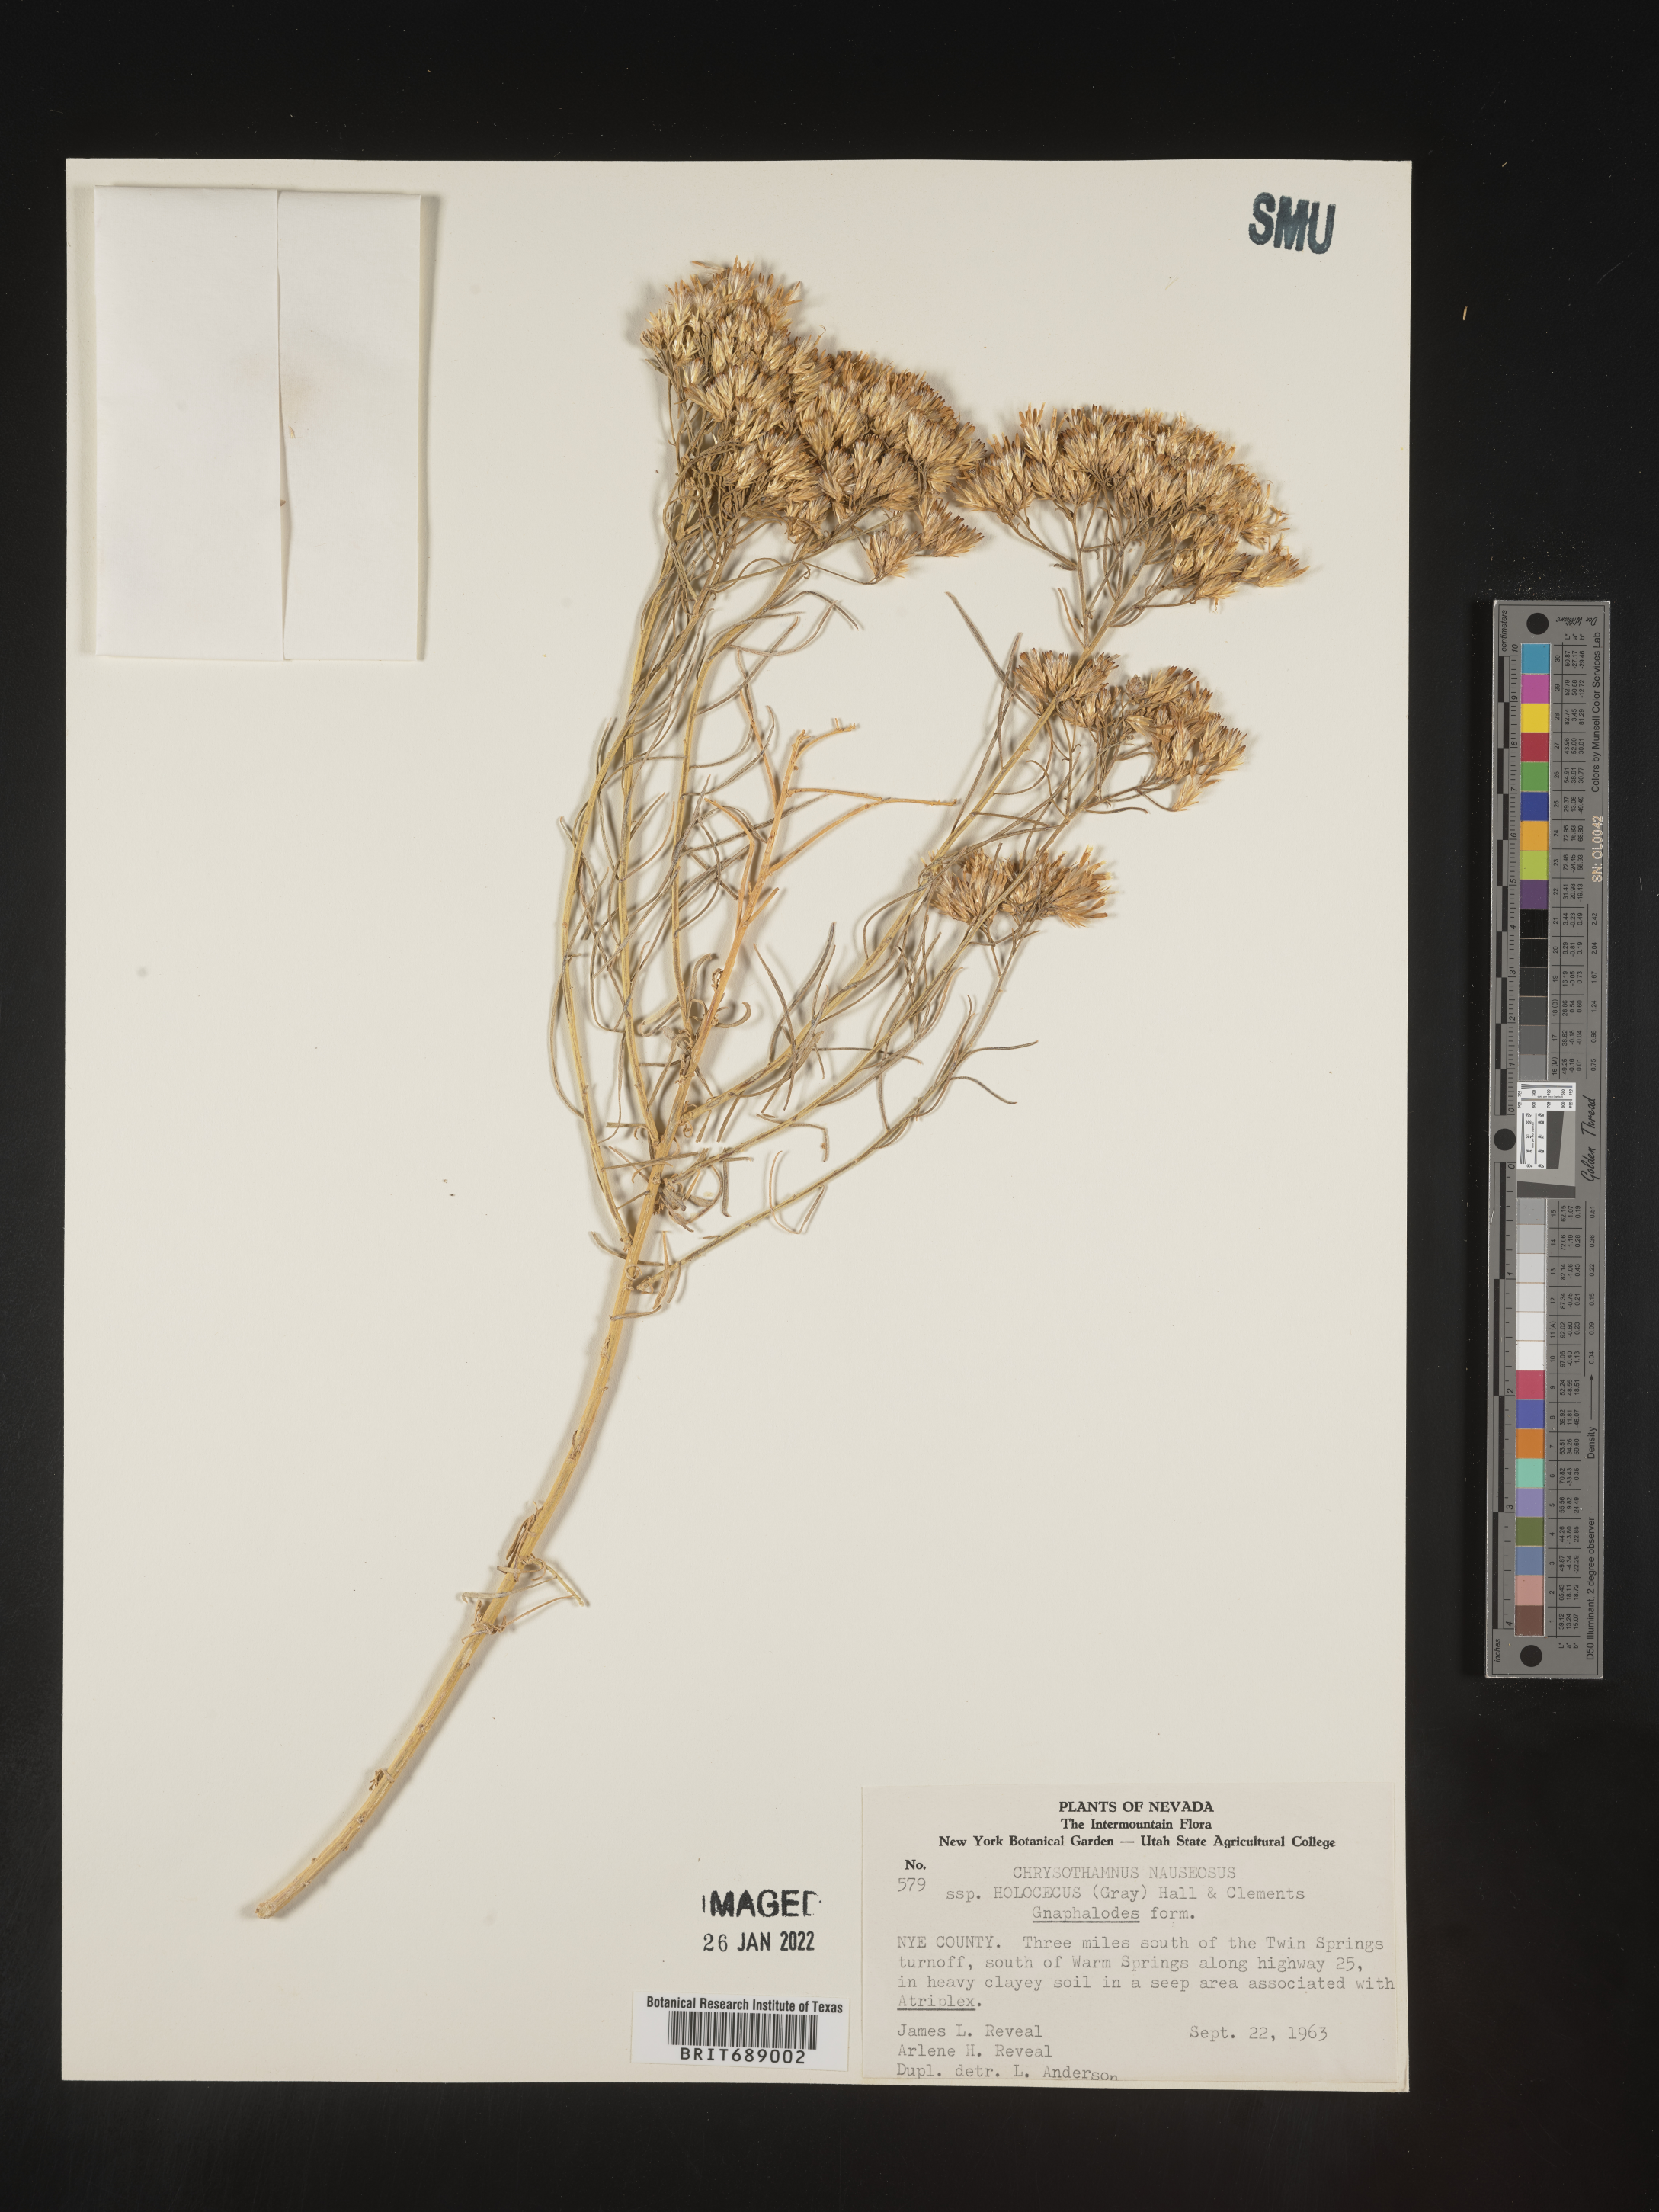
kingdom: Plantae
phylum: Tracheophyta
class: Magnoliopsida
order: Asterales
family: Asteraceae
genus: Ericameria
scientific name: Ericameria nauseosa
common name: Rubber rabbitbrush
